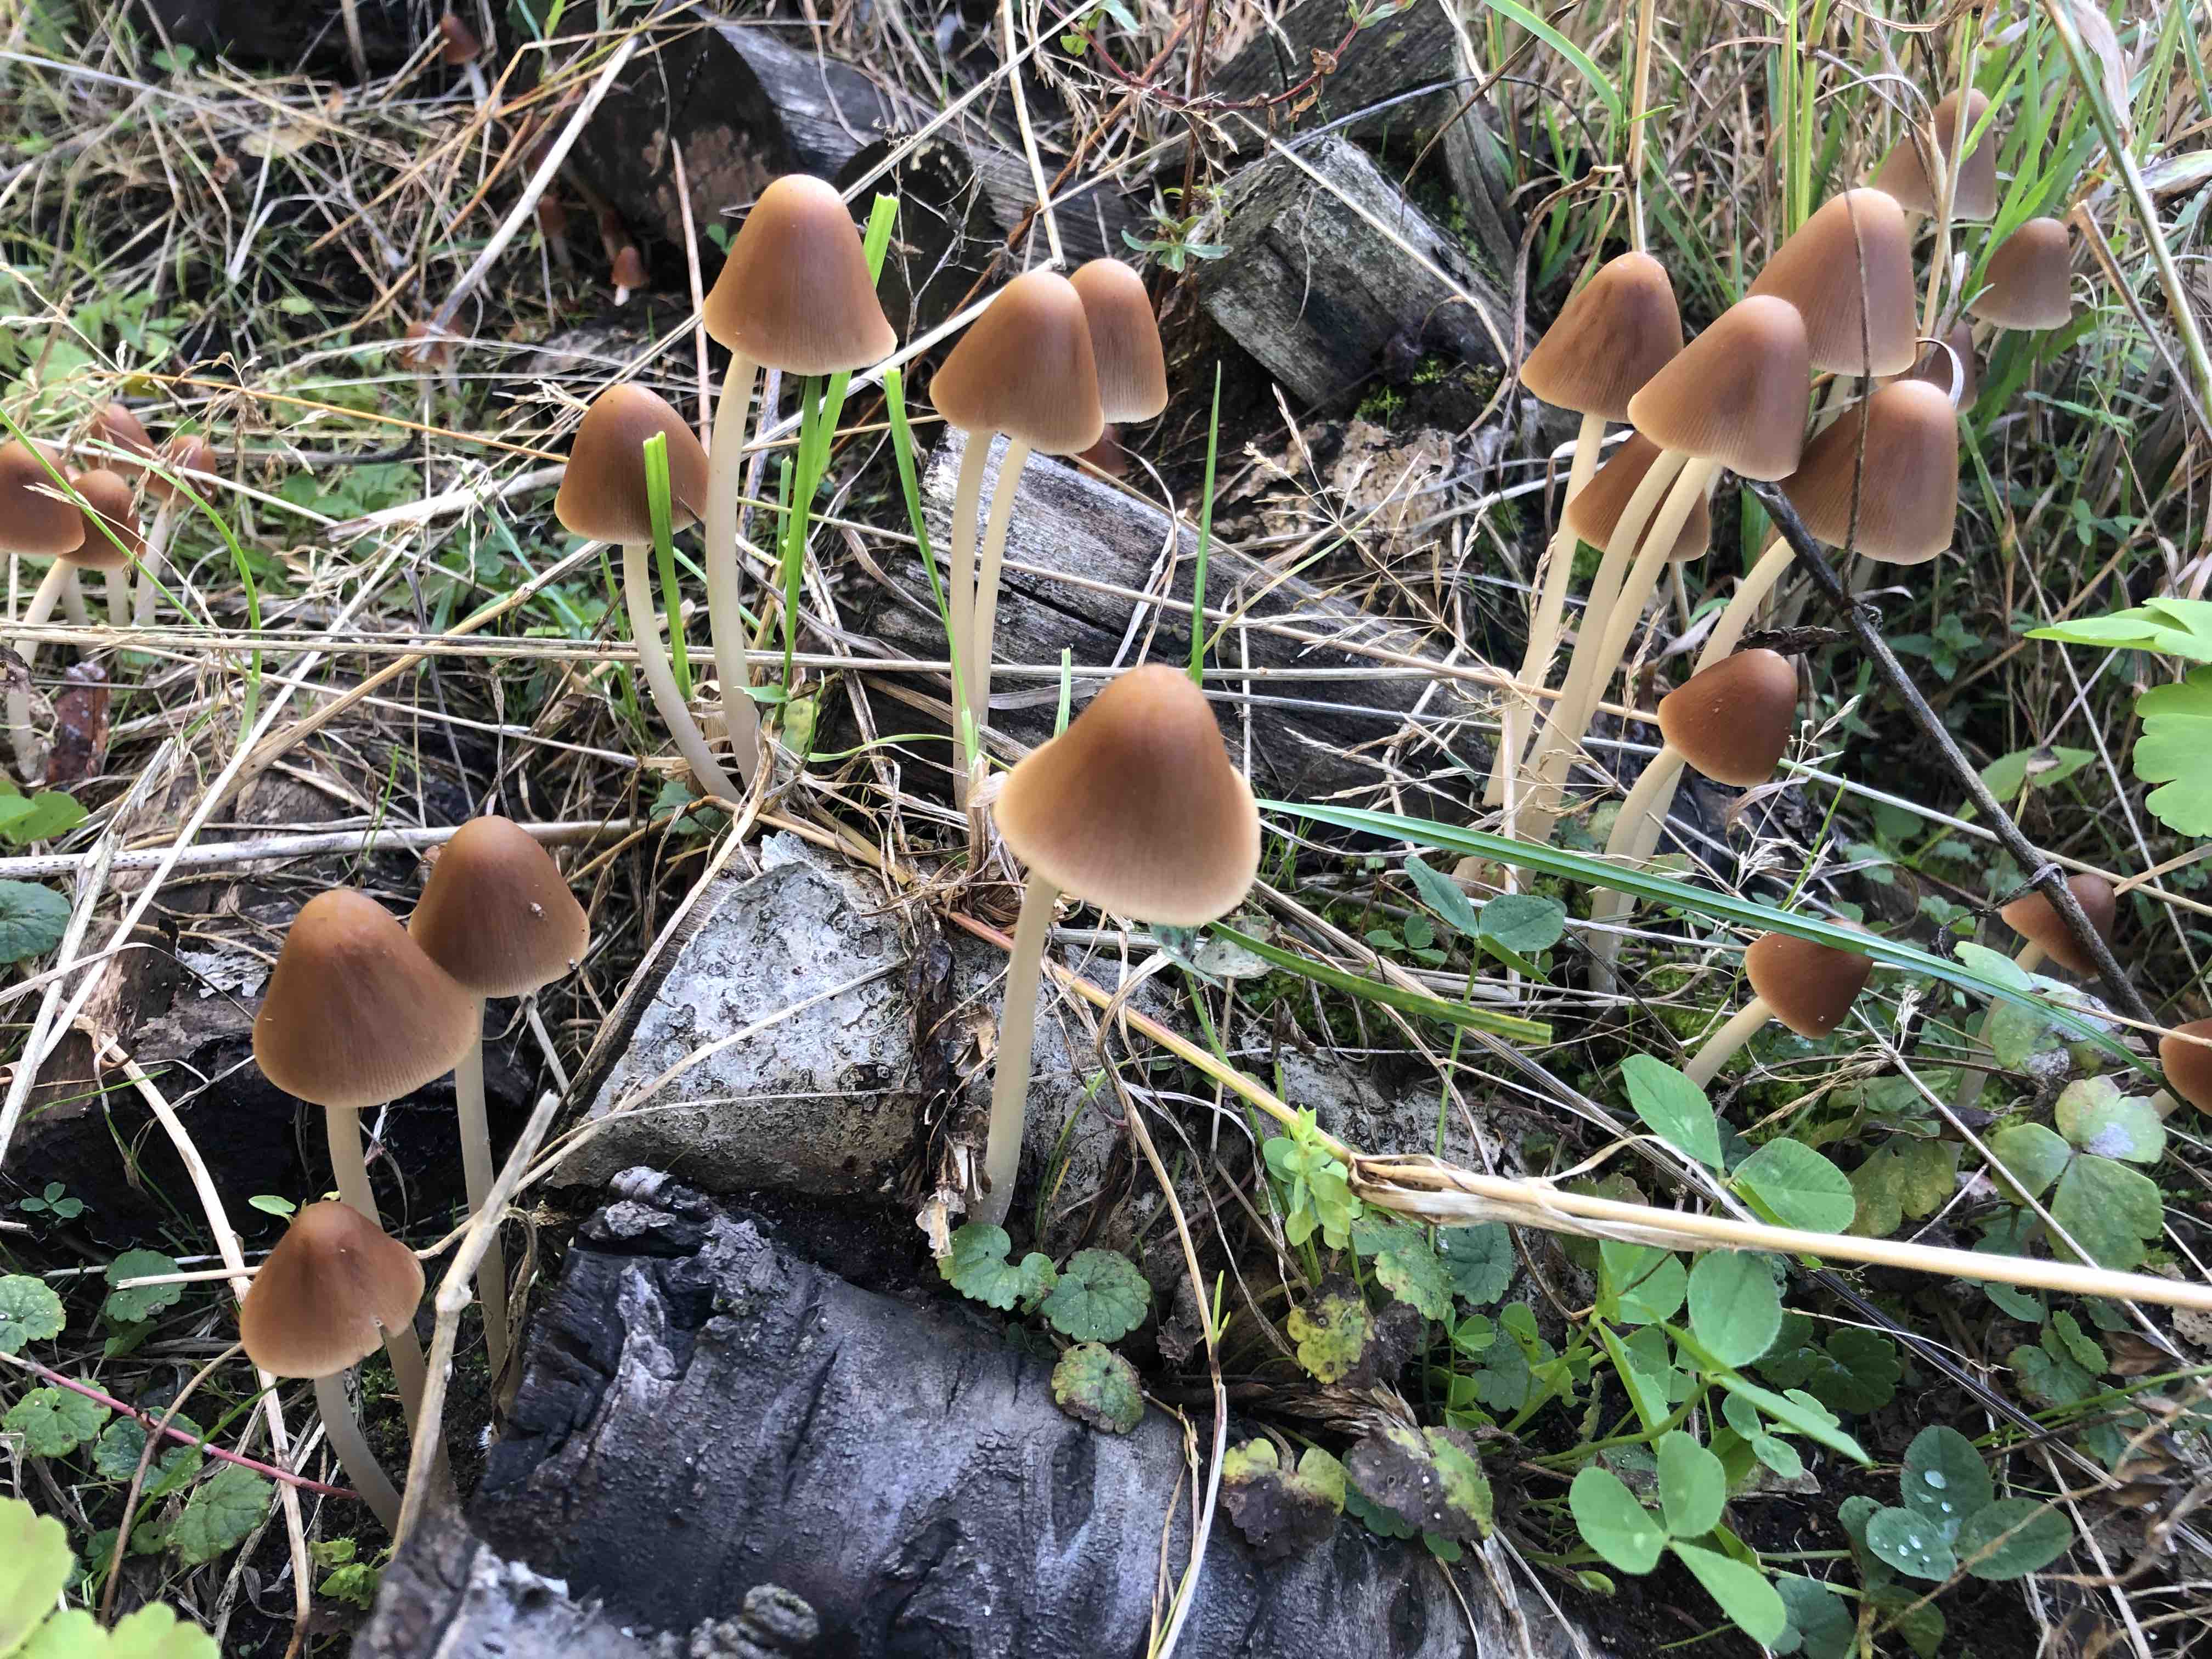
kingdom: Fungi
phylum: Basidiomycota
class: Agaricomycetes
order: Agaricales
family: Psathyrellaceae
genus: Parasola
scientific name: Parasola conopilea
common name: kegle-hjulhat
